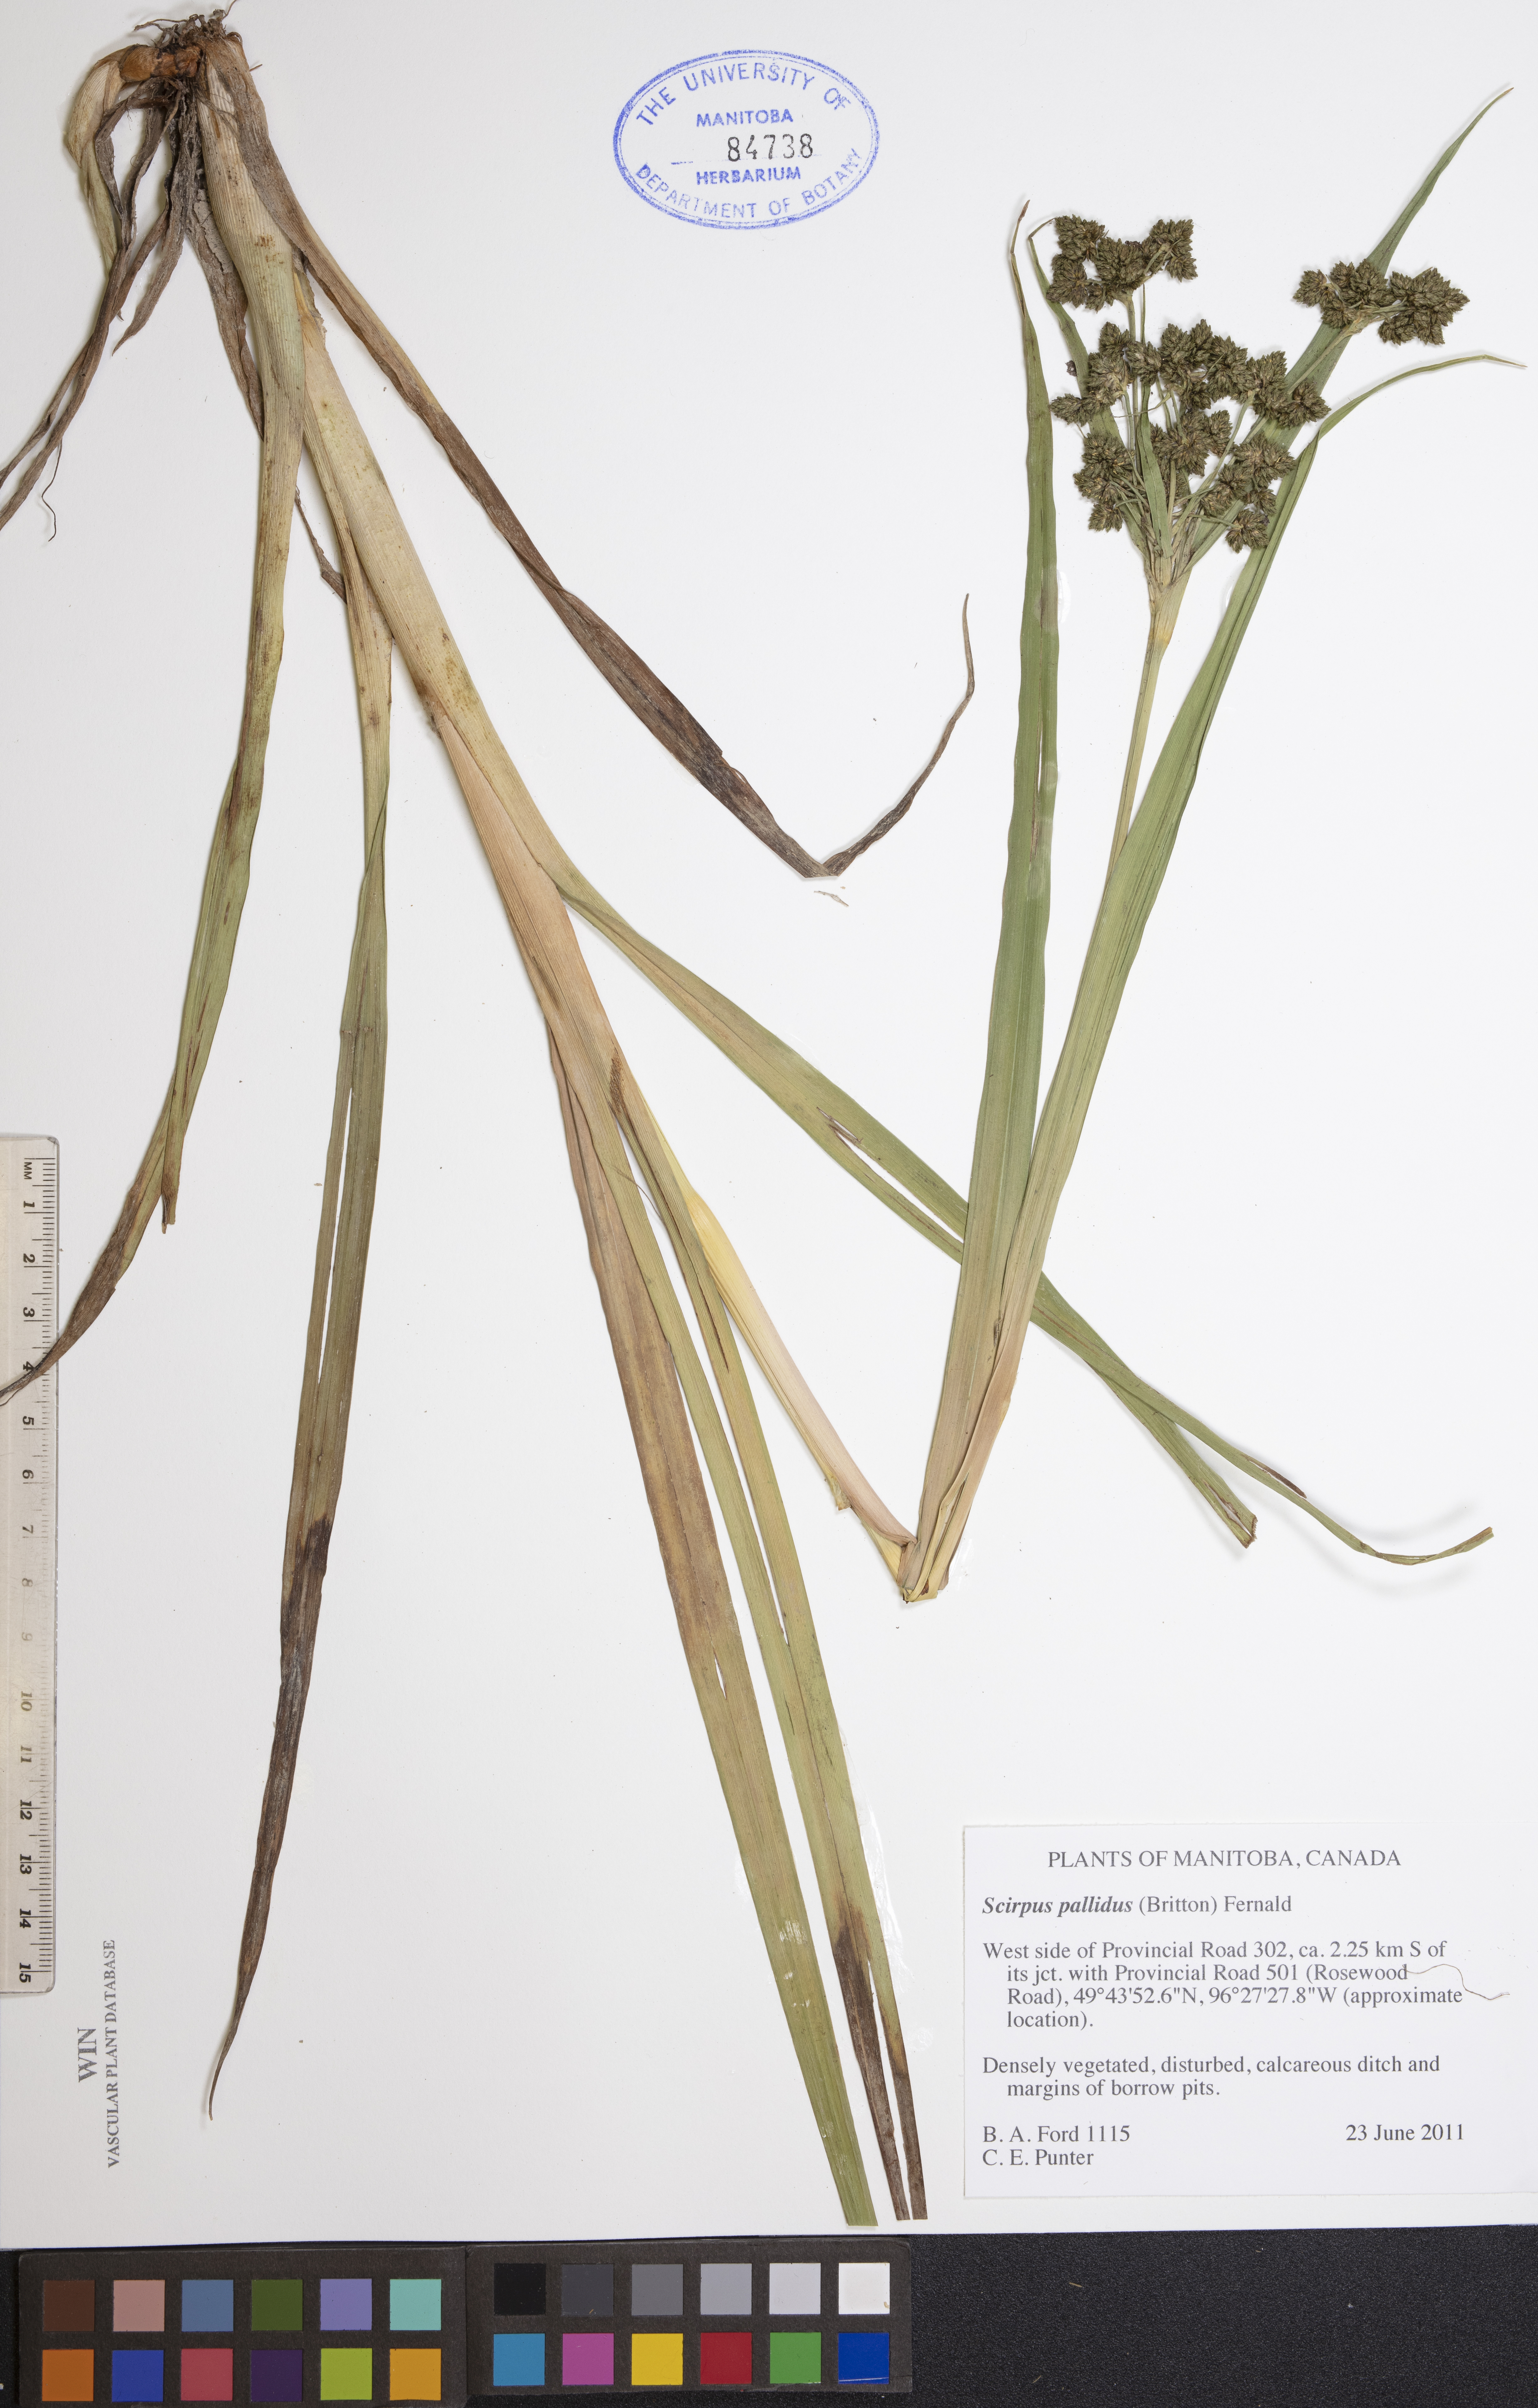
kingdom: Plantae
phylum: Tracheophyta
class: Liliopsida
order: Poales
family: Cyperaceae
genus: Scirpus
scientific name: Scirpus pallidus
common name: Cloaked bulrush
